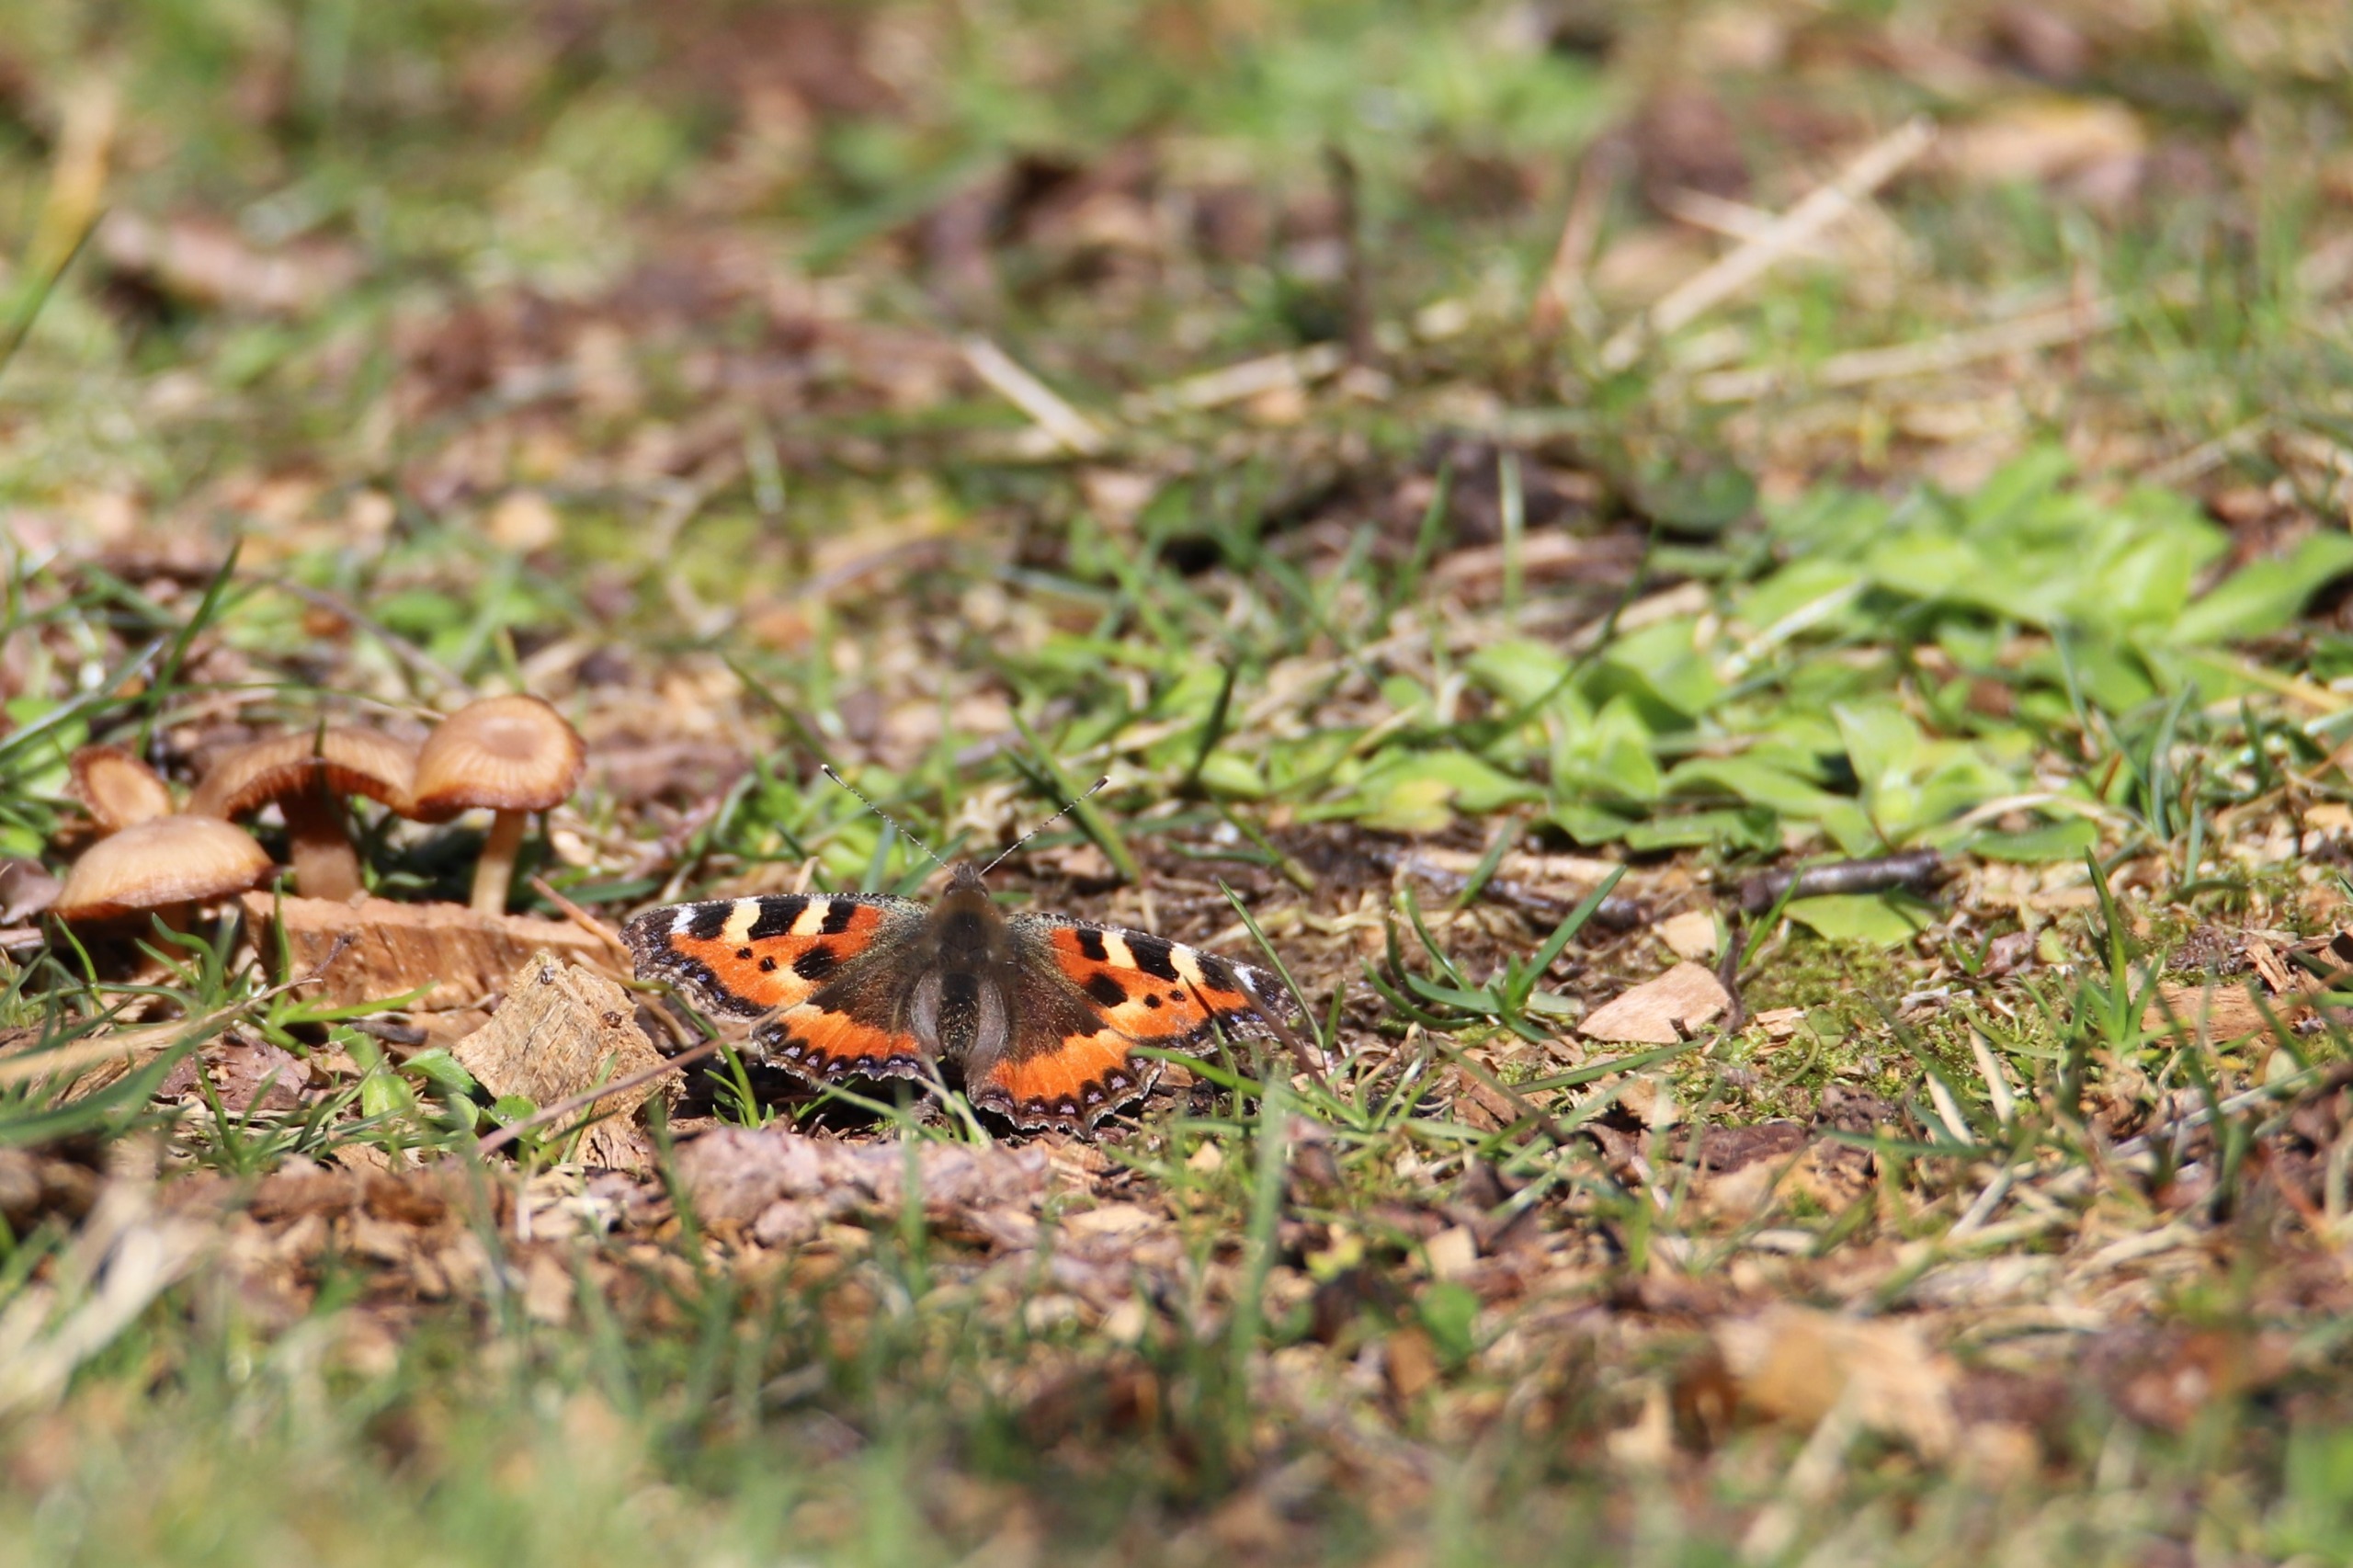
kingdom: Animalia
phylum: Arthropoda
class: Insecta
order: Lepidoptera
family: Nymphalidae
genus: Aglais
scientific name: Aglais urticae
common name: Nældens takvinge
